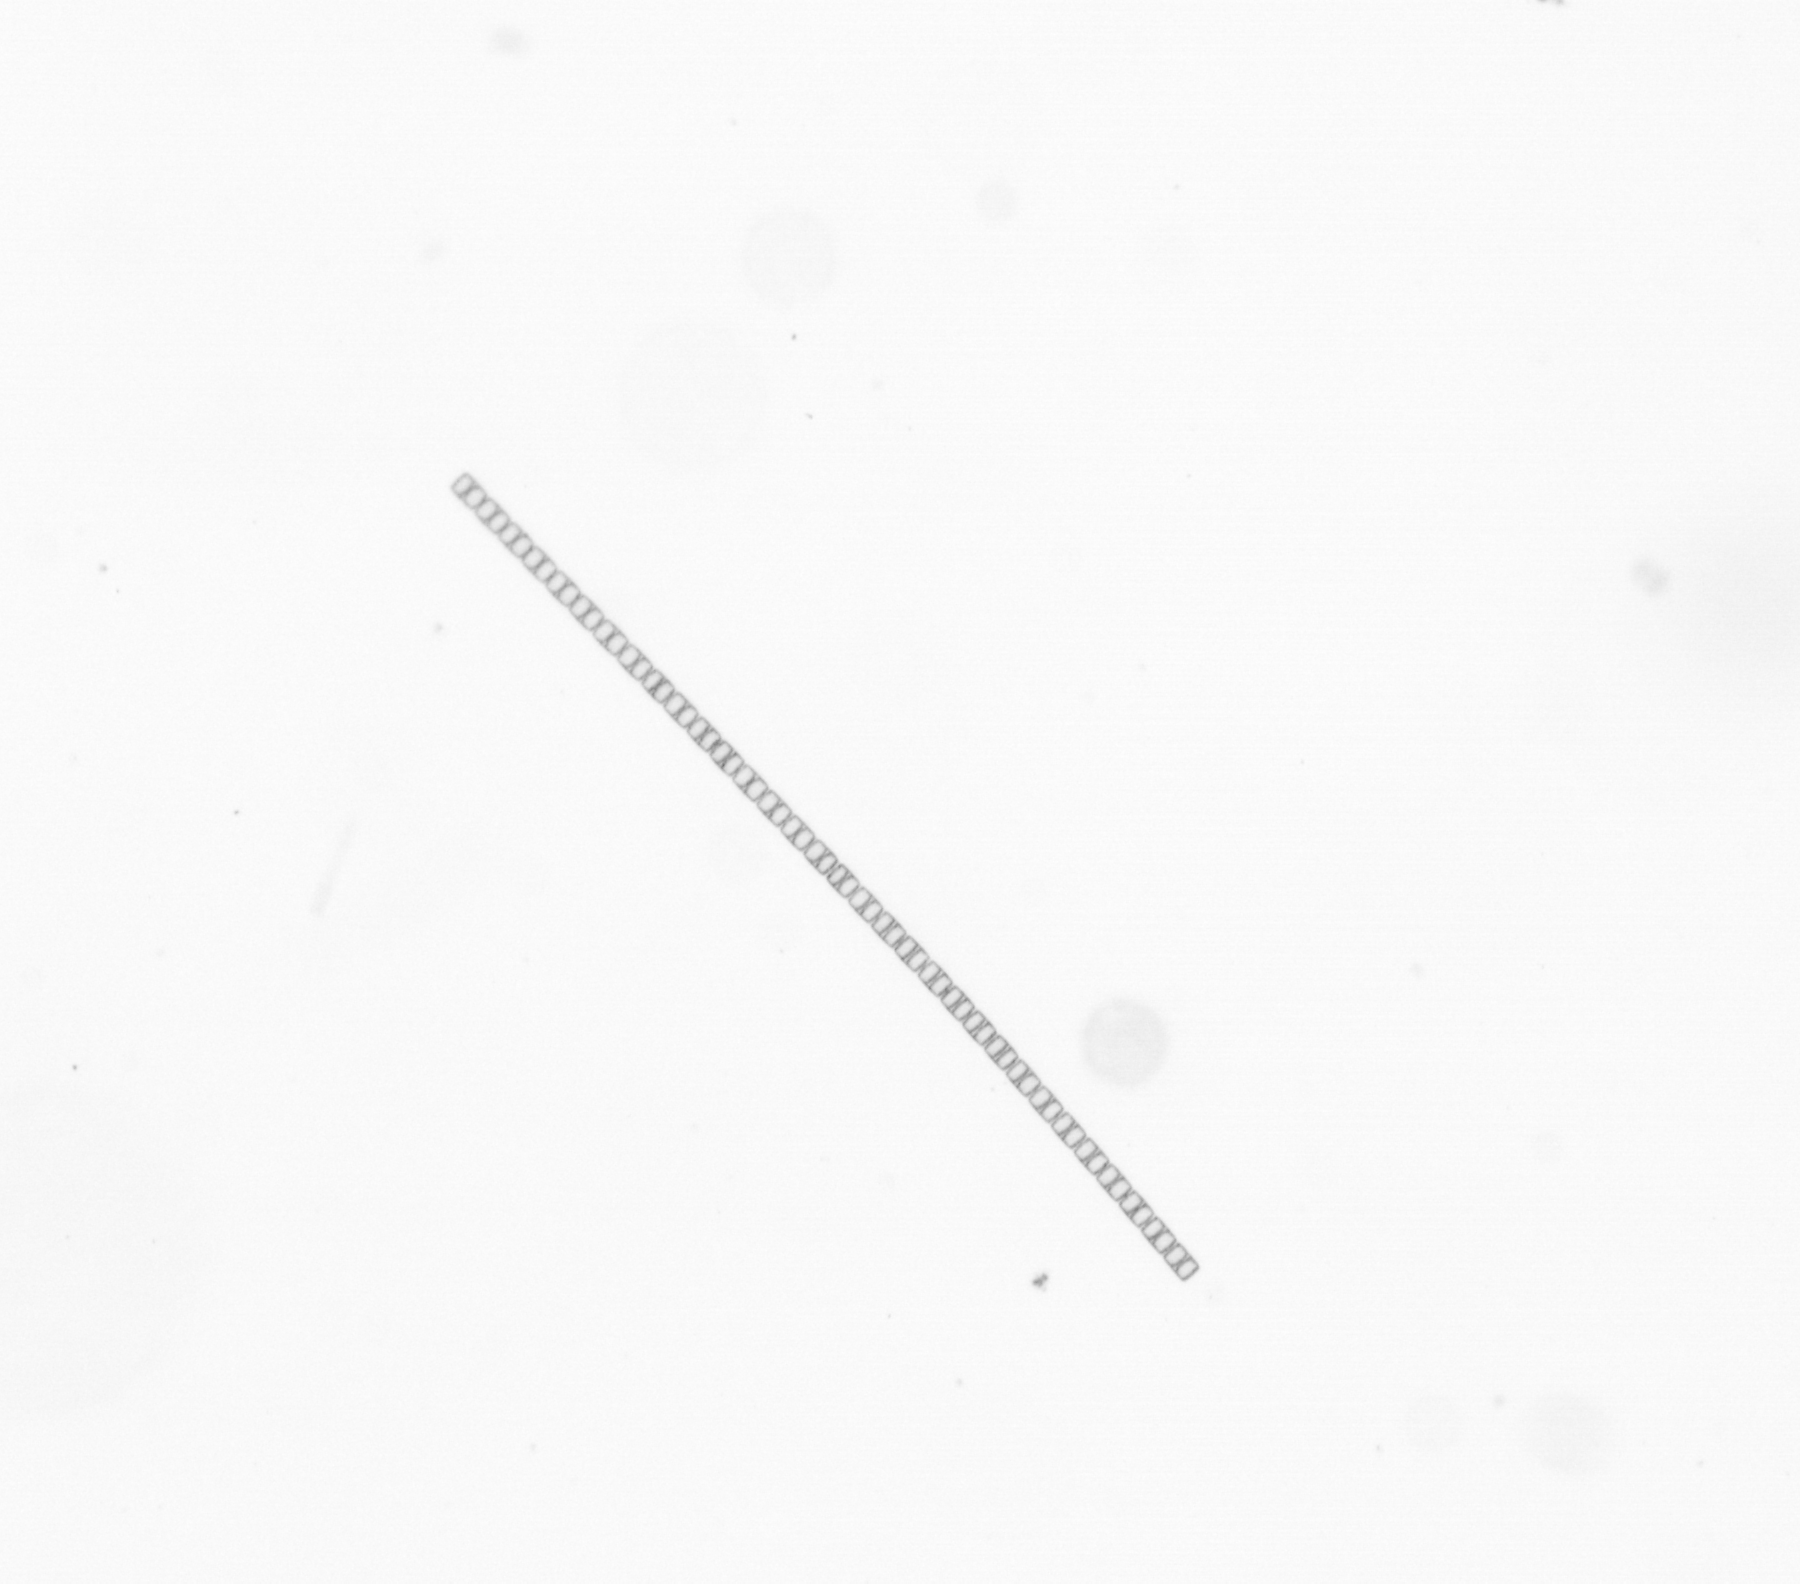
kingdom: Chromista
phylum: Ochrophyta
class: Bacillariophyceae
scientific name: Bacillariophyceae
